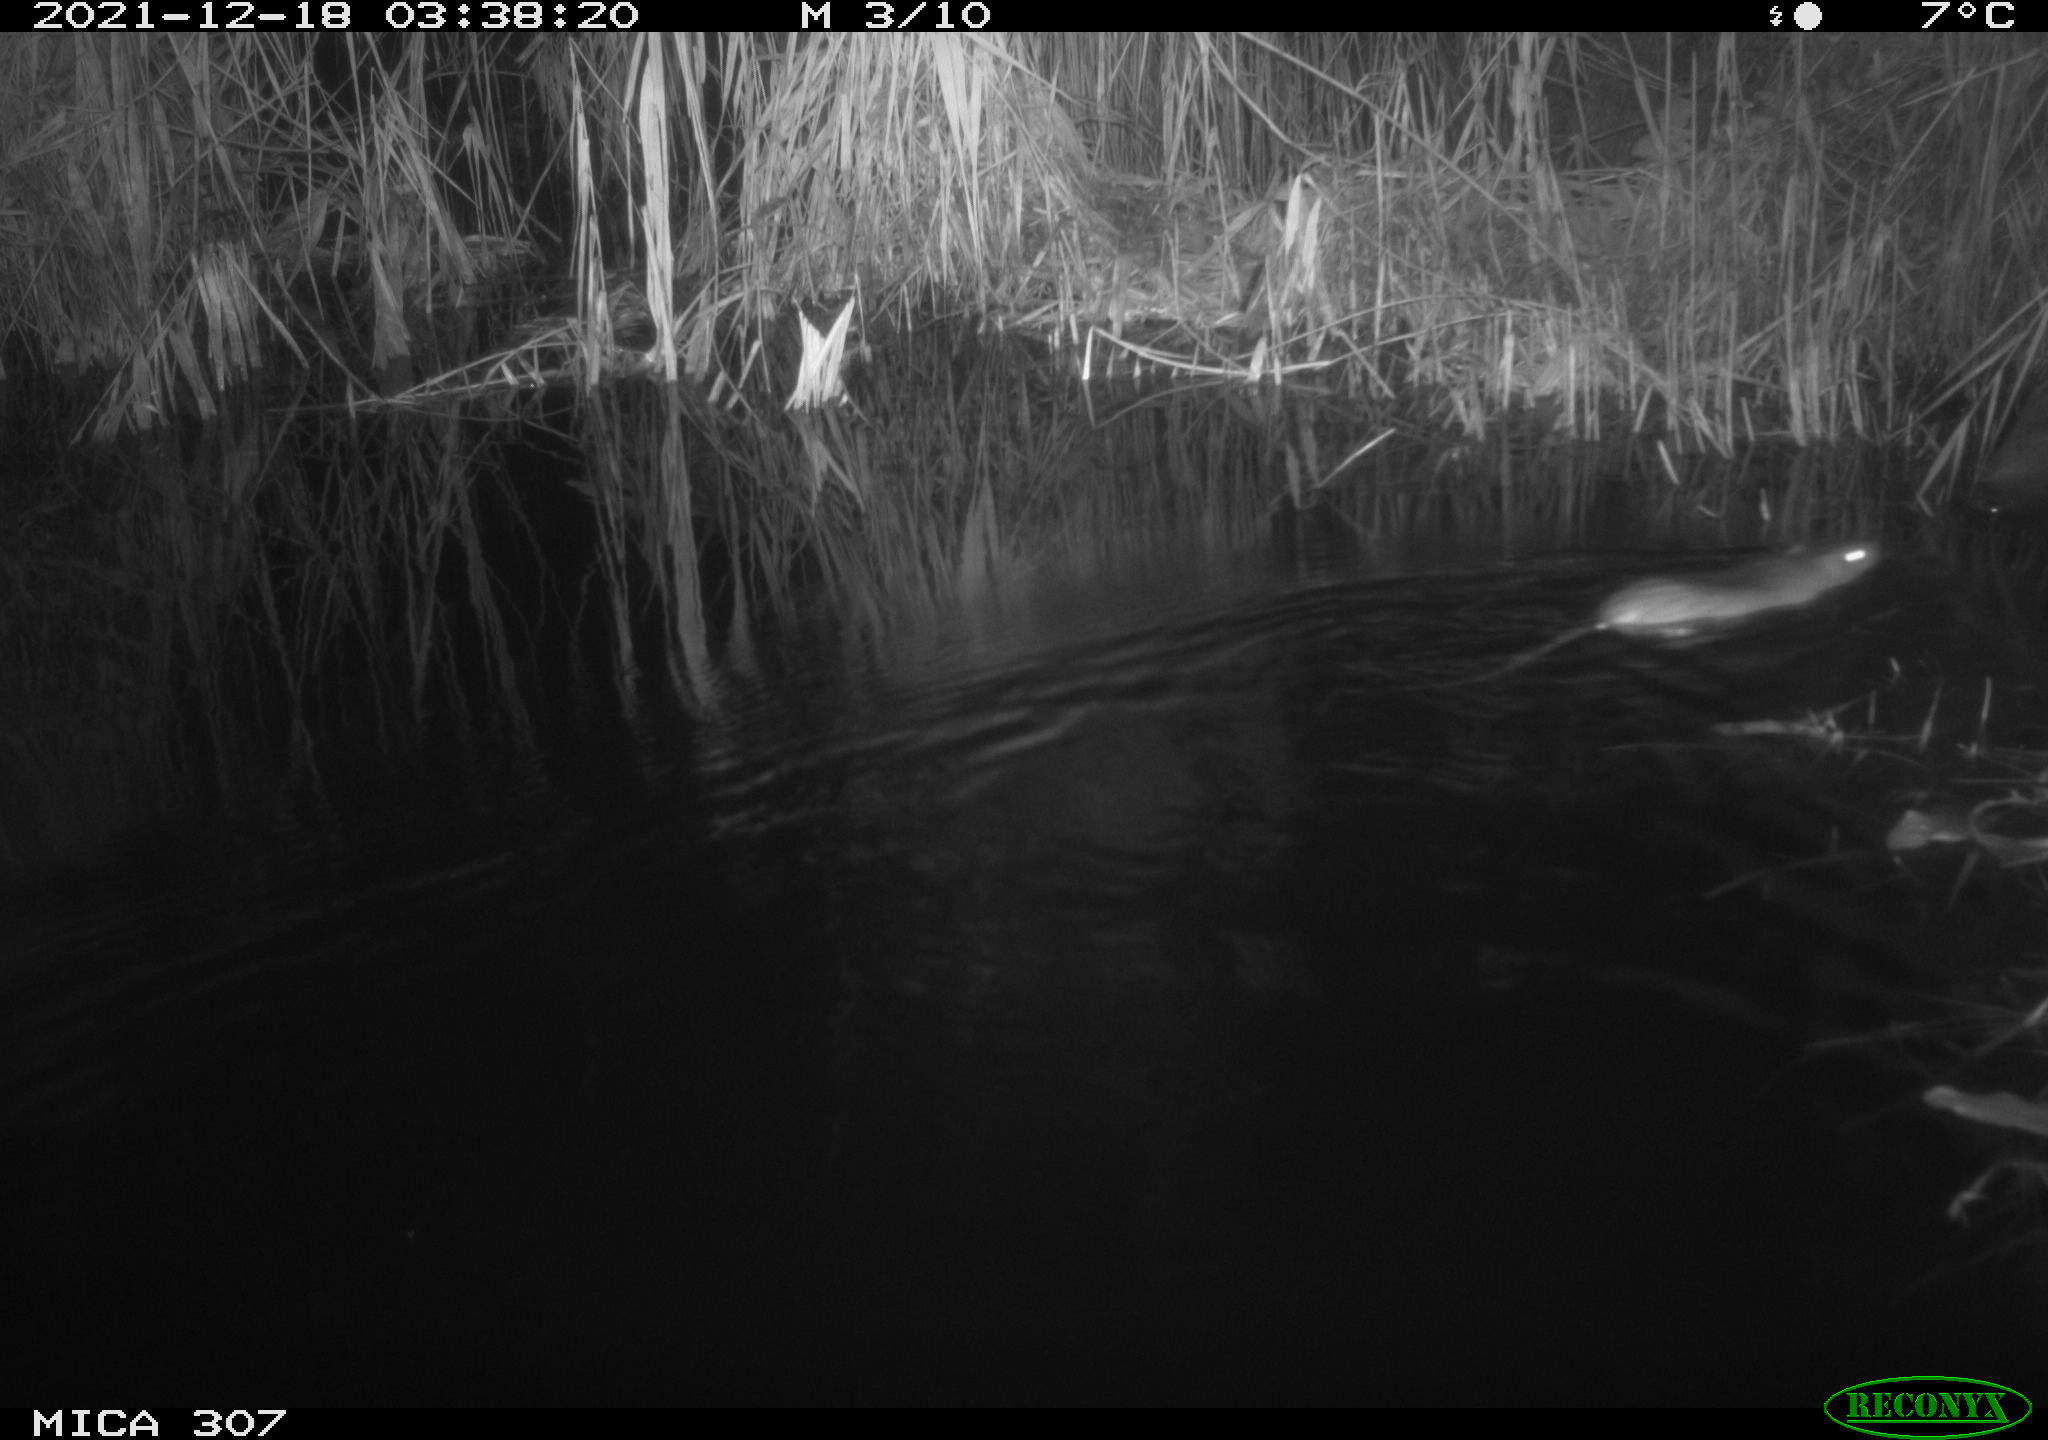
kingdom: Animalia
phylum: Chordata
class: Mammalia
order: Rodentia
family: Muridae
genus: Rattus
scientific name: Rattus norvegicus
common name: Brown rat
